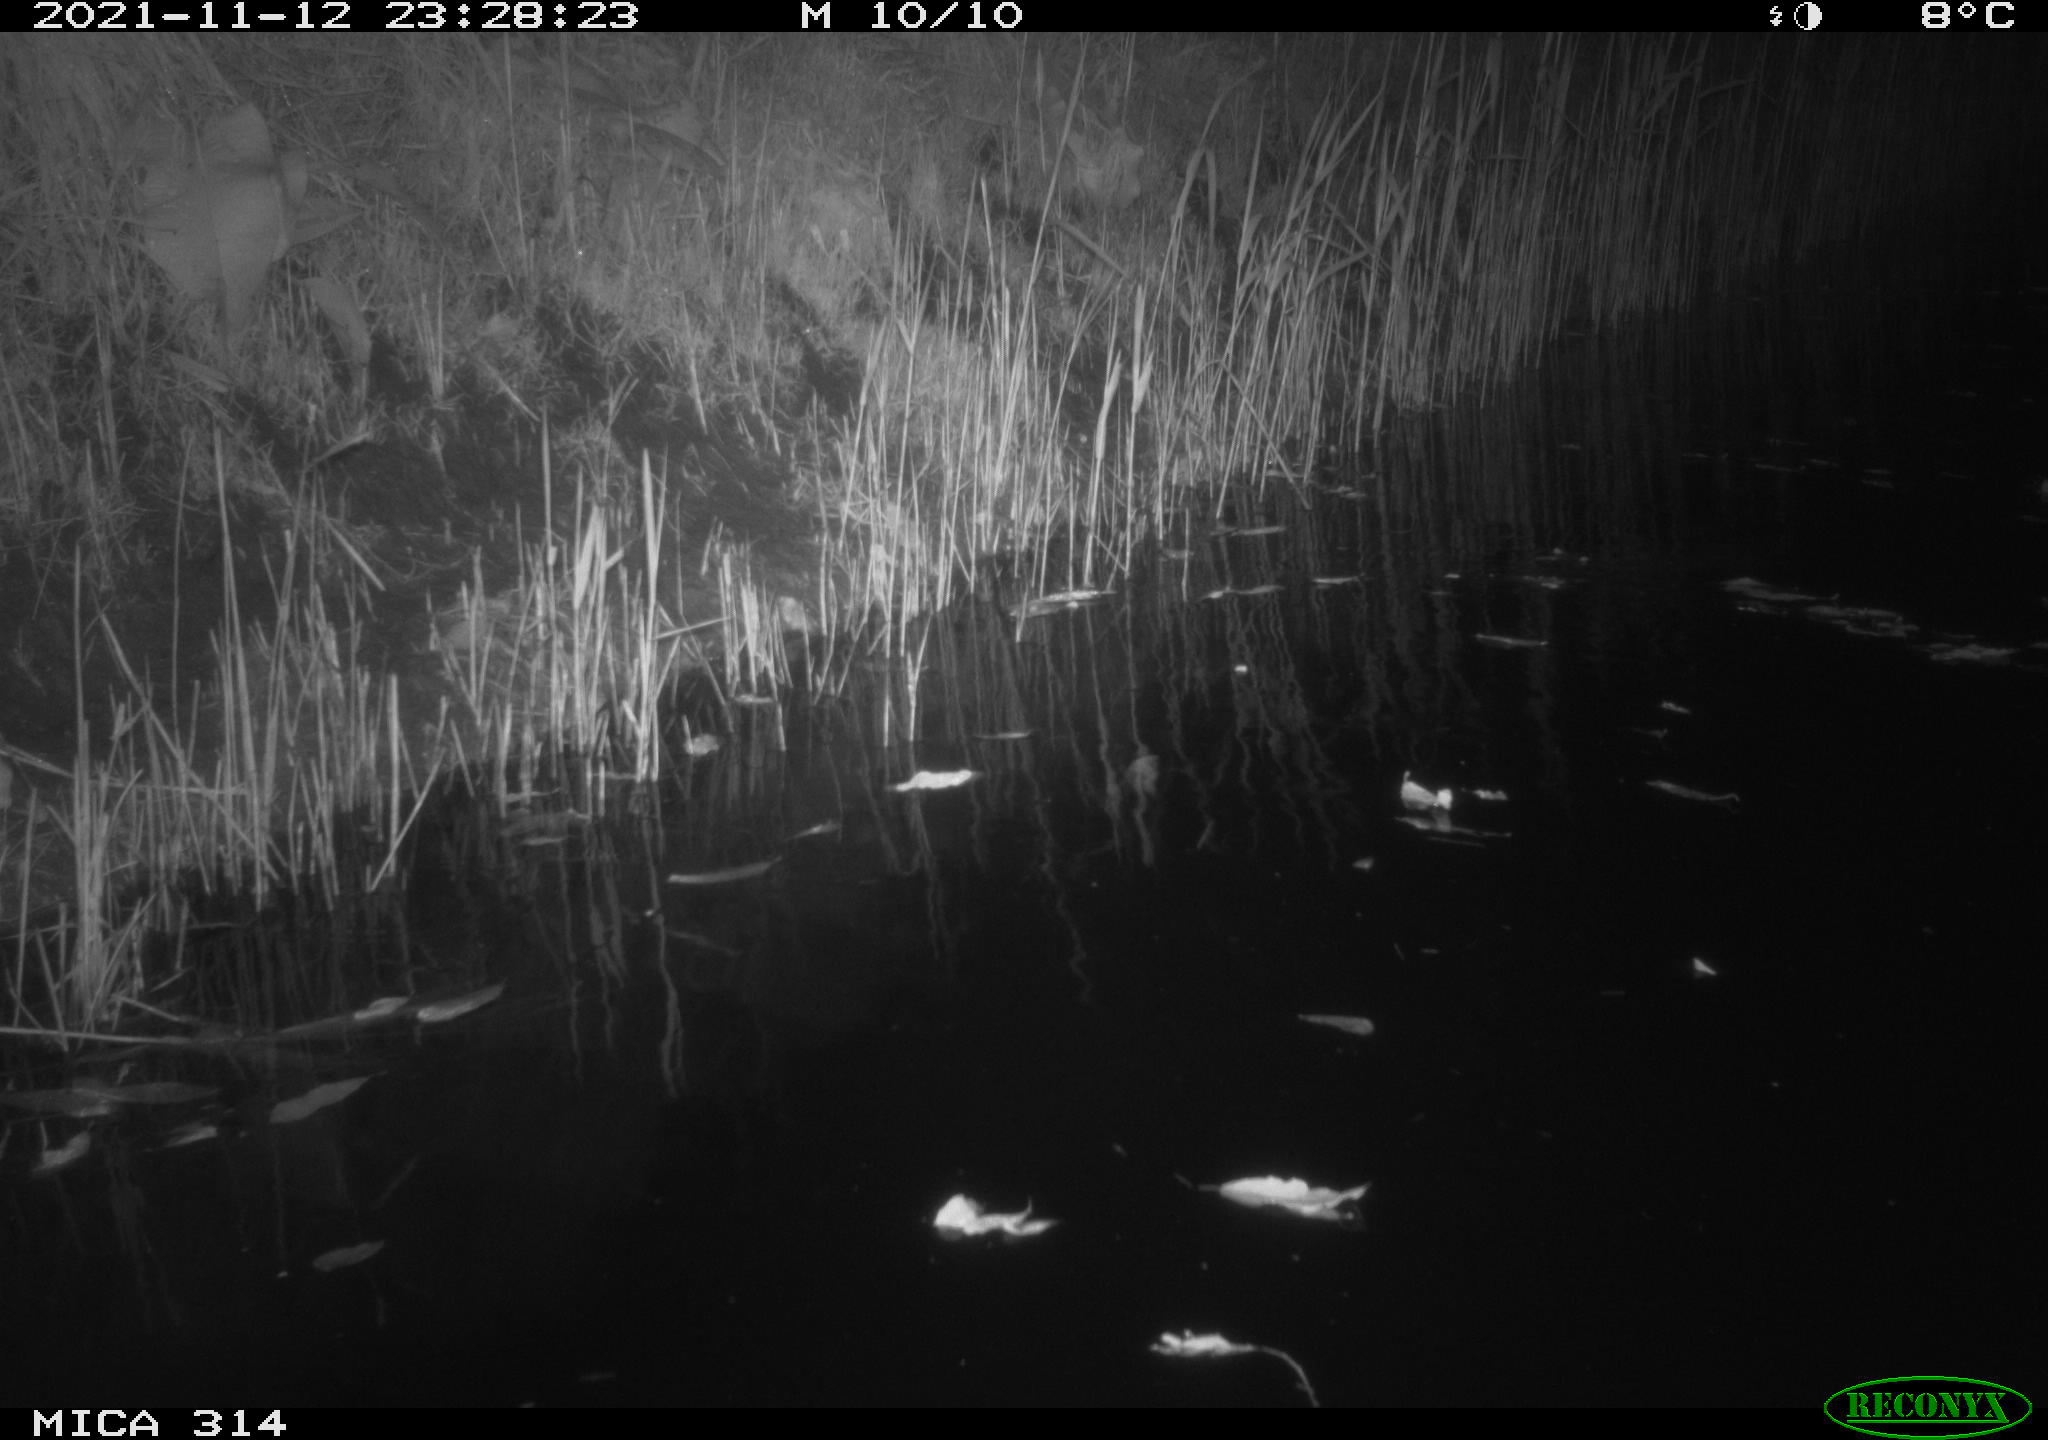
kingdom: Animalia
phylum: Chordata
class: Mammalia
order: Rodentia
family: Muridae
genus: Rattus
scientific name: Rattus norvegicus
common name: Brown rat
